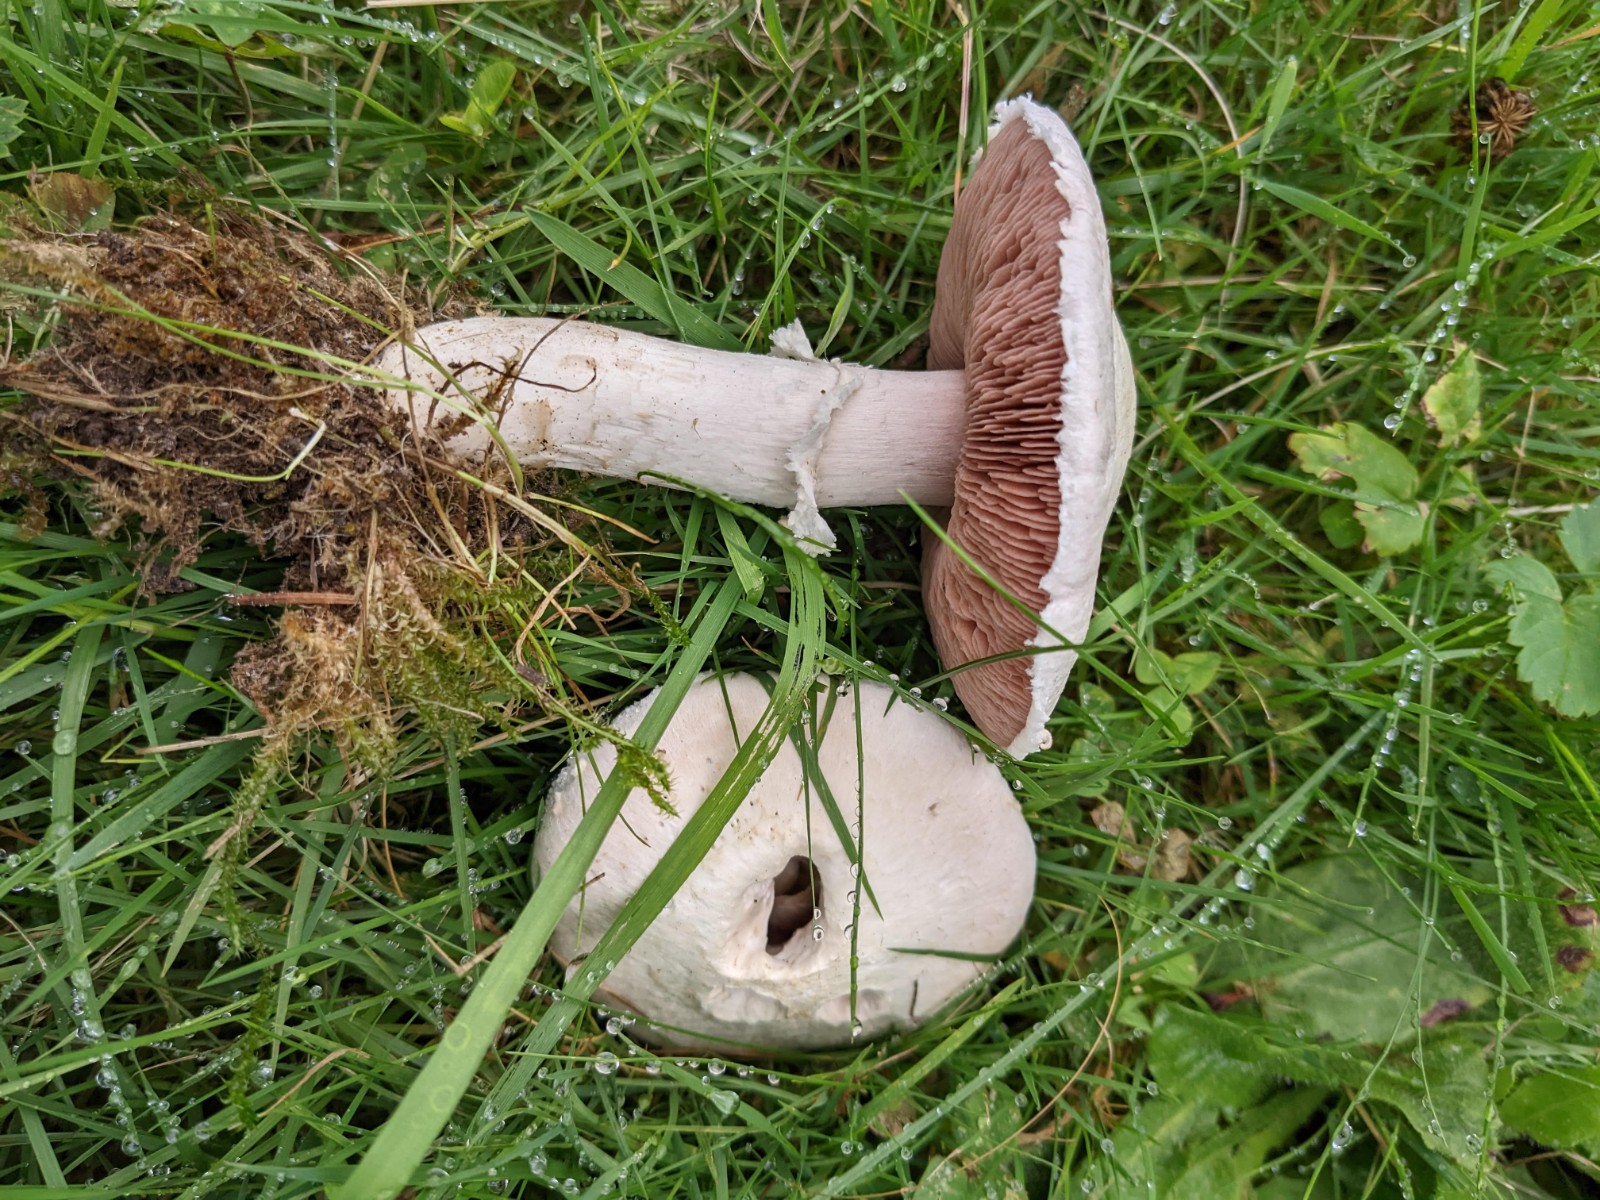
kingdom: Fungi
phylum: Basidiomycota
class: Agaricomycetes
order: Agaricales
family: Agaricaceae
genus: Agaricus
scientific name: Agaricus campestris
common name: mark-champignon
